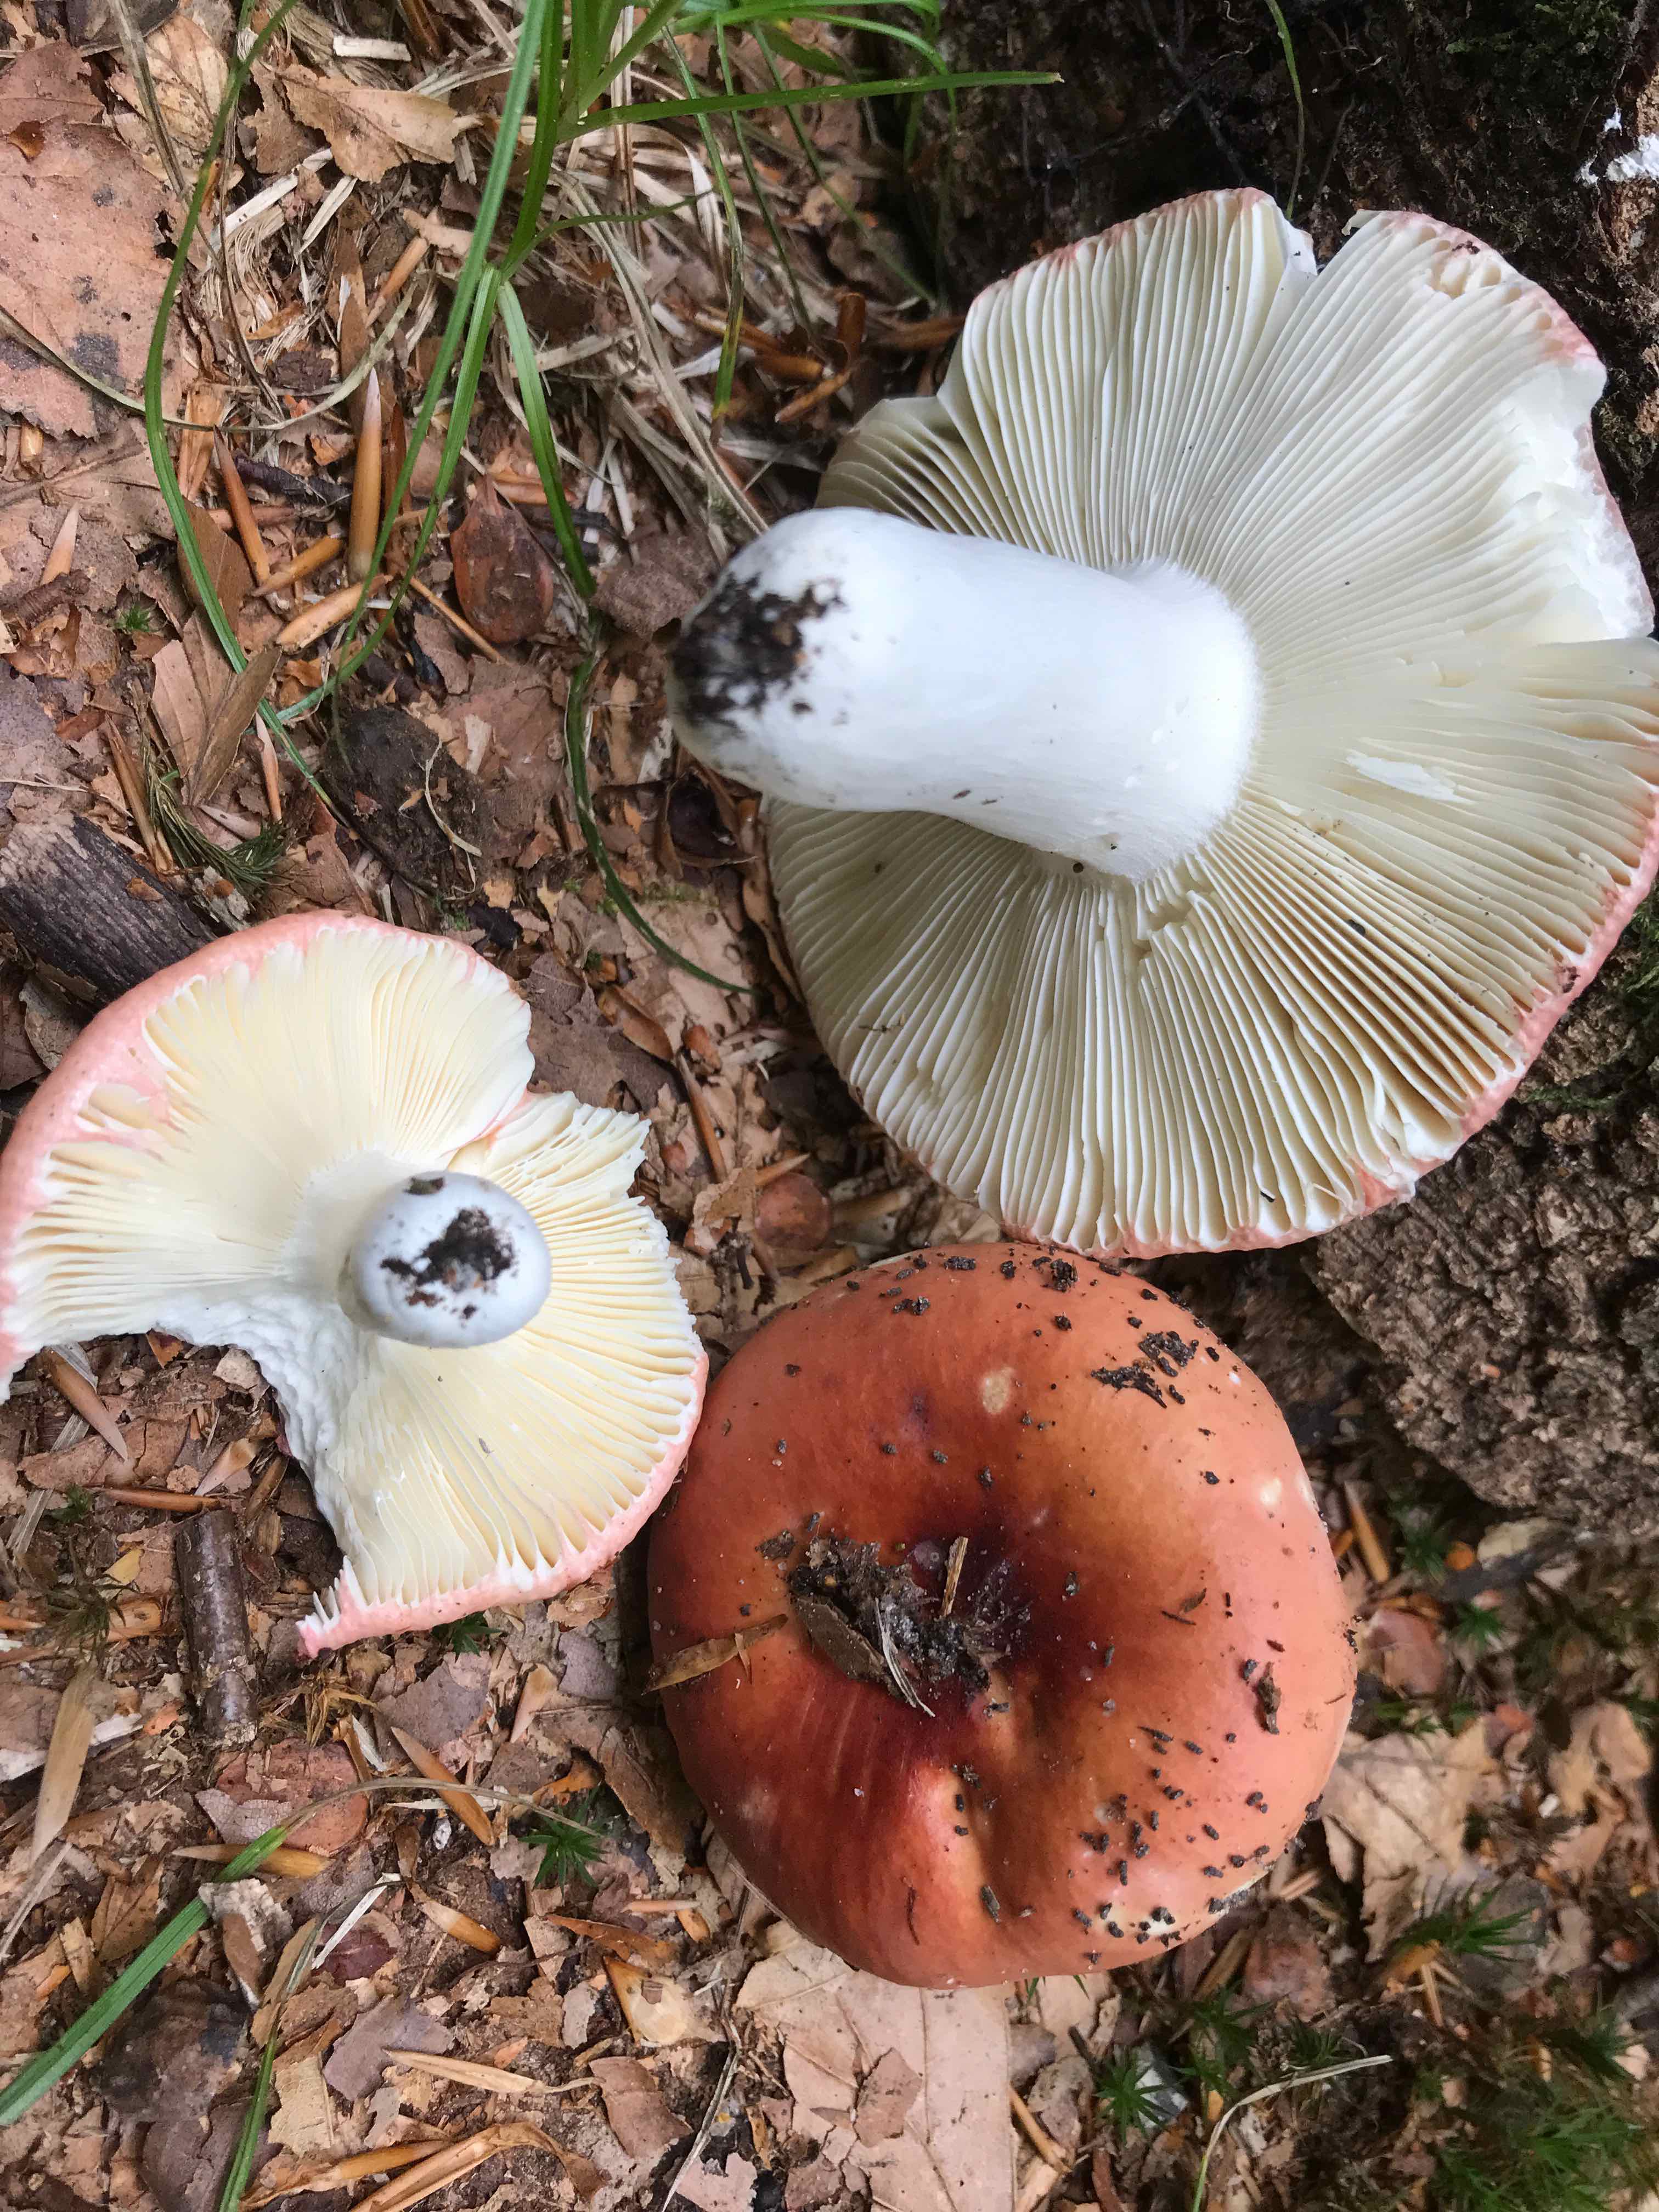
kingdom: Fungi
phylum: Basidiomycota
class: Agaricomycetes
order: Russulales
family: Russulaceae
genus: Russula
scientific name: Russula aurora
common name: rosa skørhat
